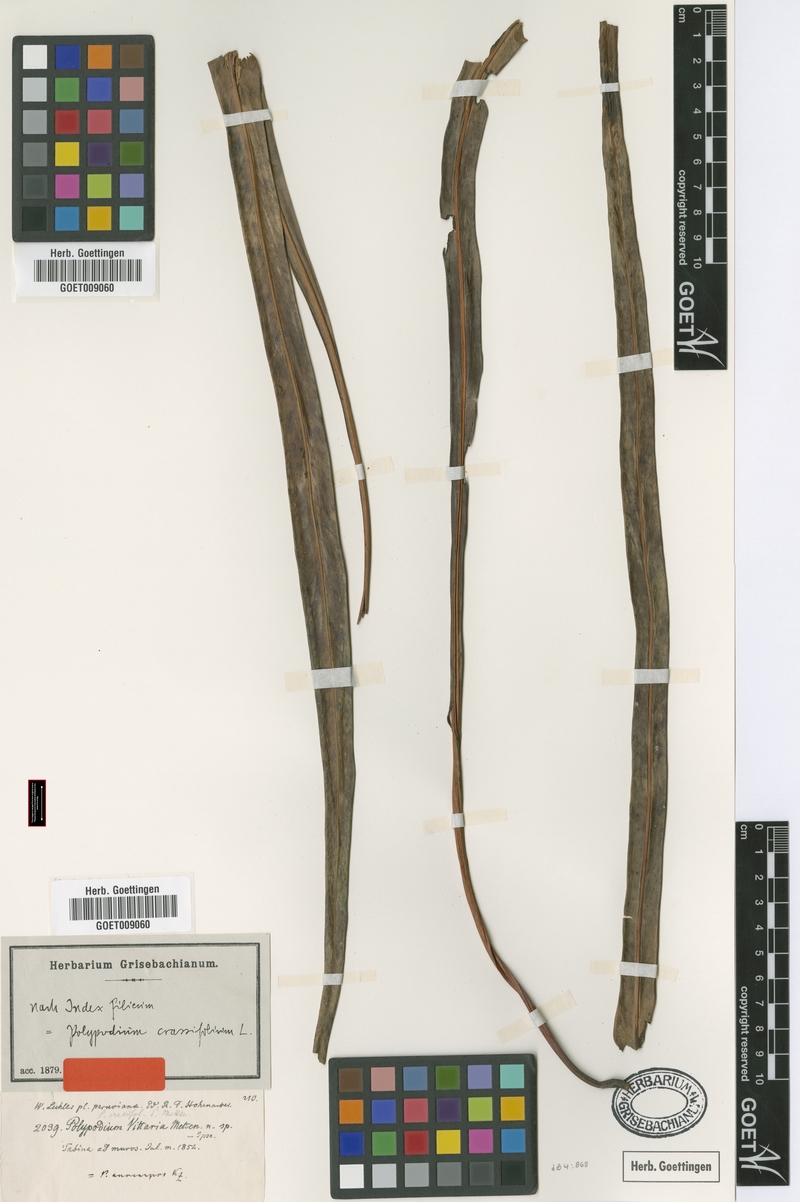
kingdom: Plantae
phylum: Tracheophyta
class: Polypodiopsida
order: Polypodiales
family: Polypodiaceae
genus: Niphidium
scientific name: Niphidium crassifolium
